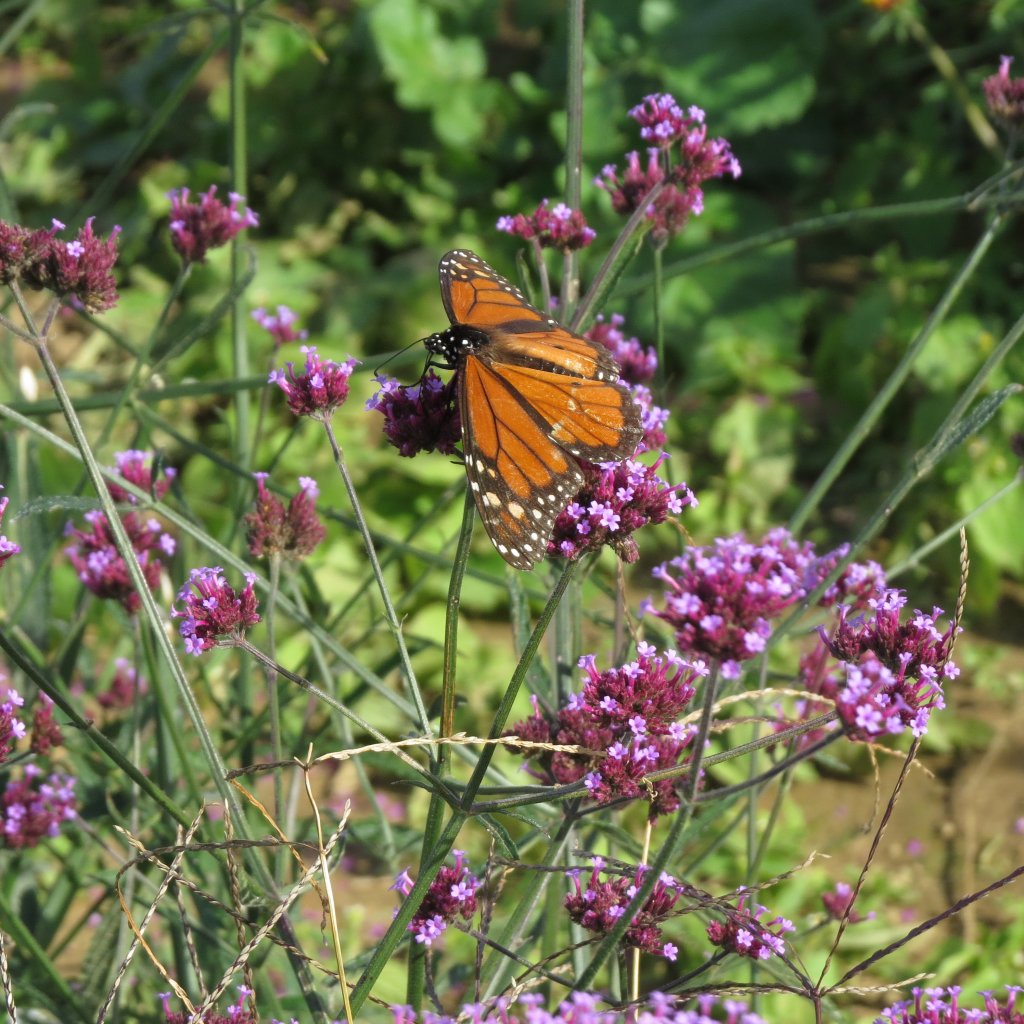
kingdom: Animalia
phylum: Arthropoda
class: Insecta
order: Lepidoptera
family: Nymphalidae
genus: Danaus
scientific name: Danaus plexippus
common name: Monarch
